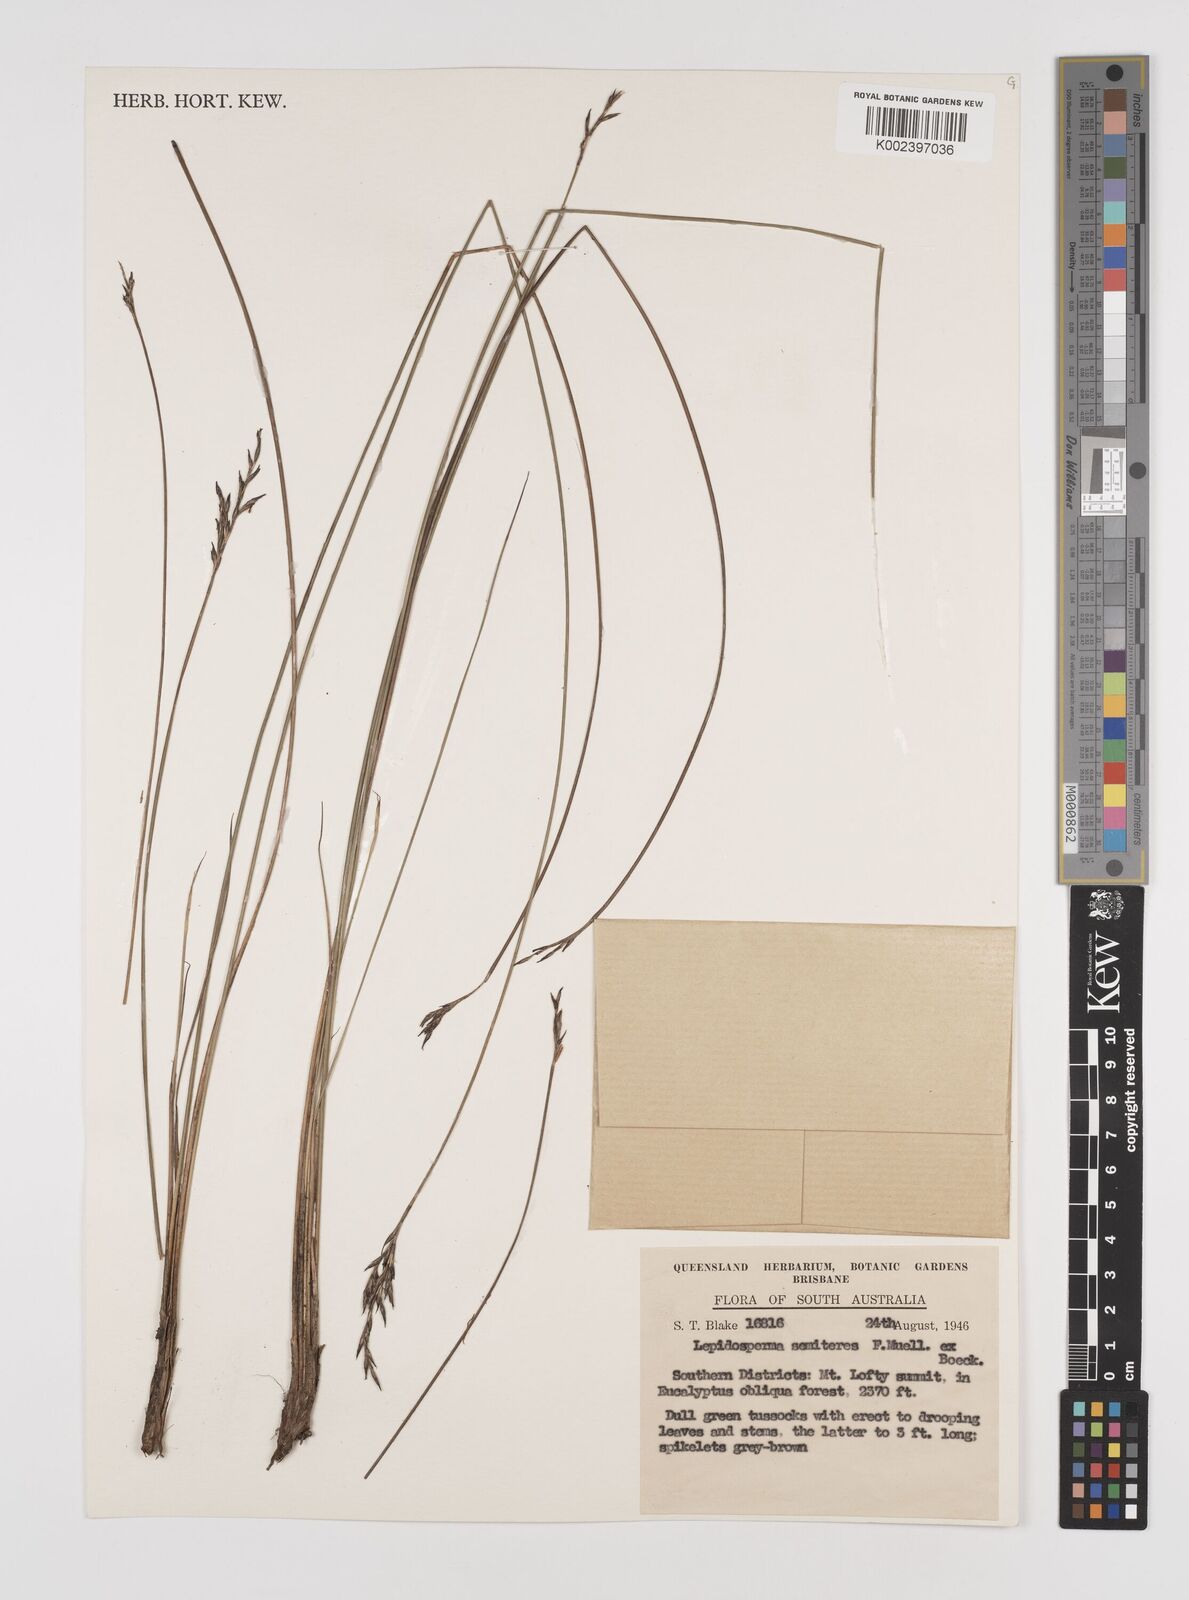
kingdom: Plantae
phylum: Tracheophyta
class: Liliopsida
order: Poales
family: Cyperaceae
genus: Lepidosperma
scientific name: Lepidosperma semiteres
